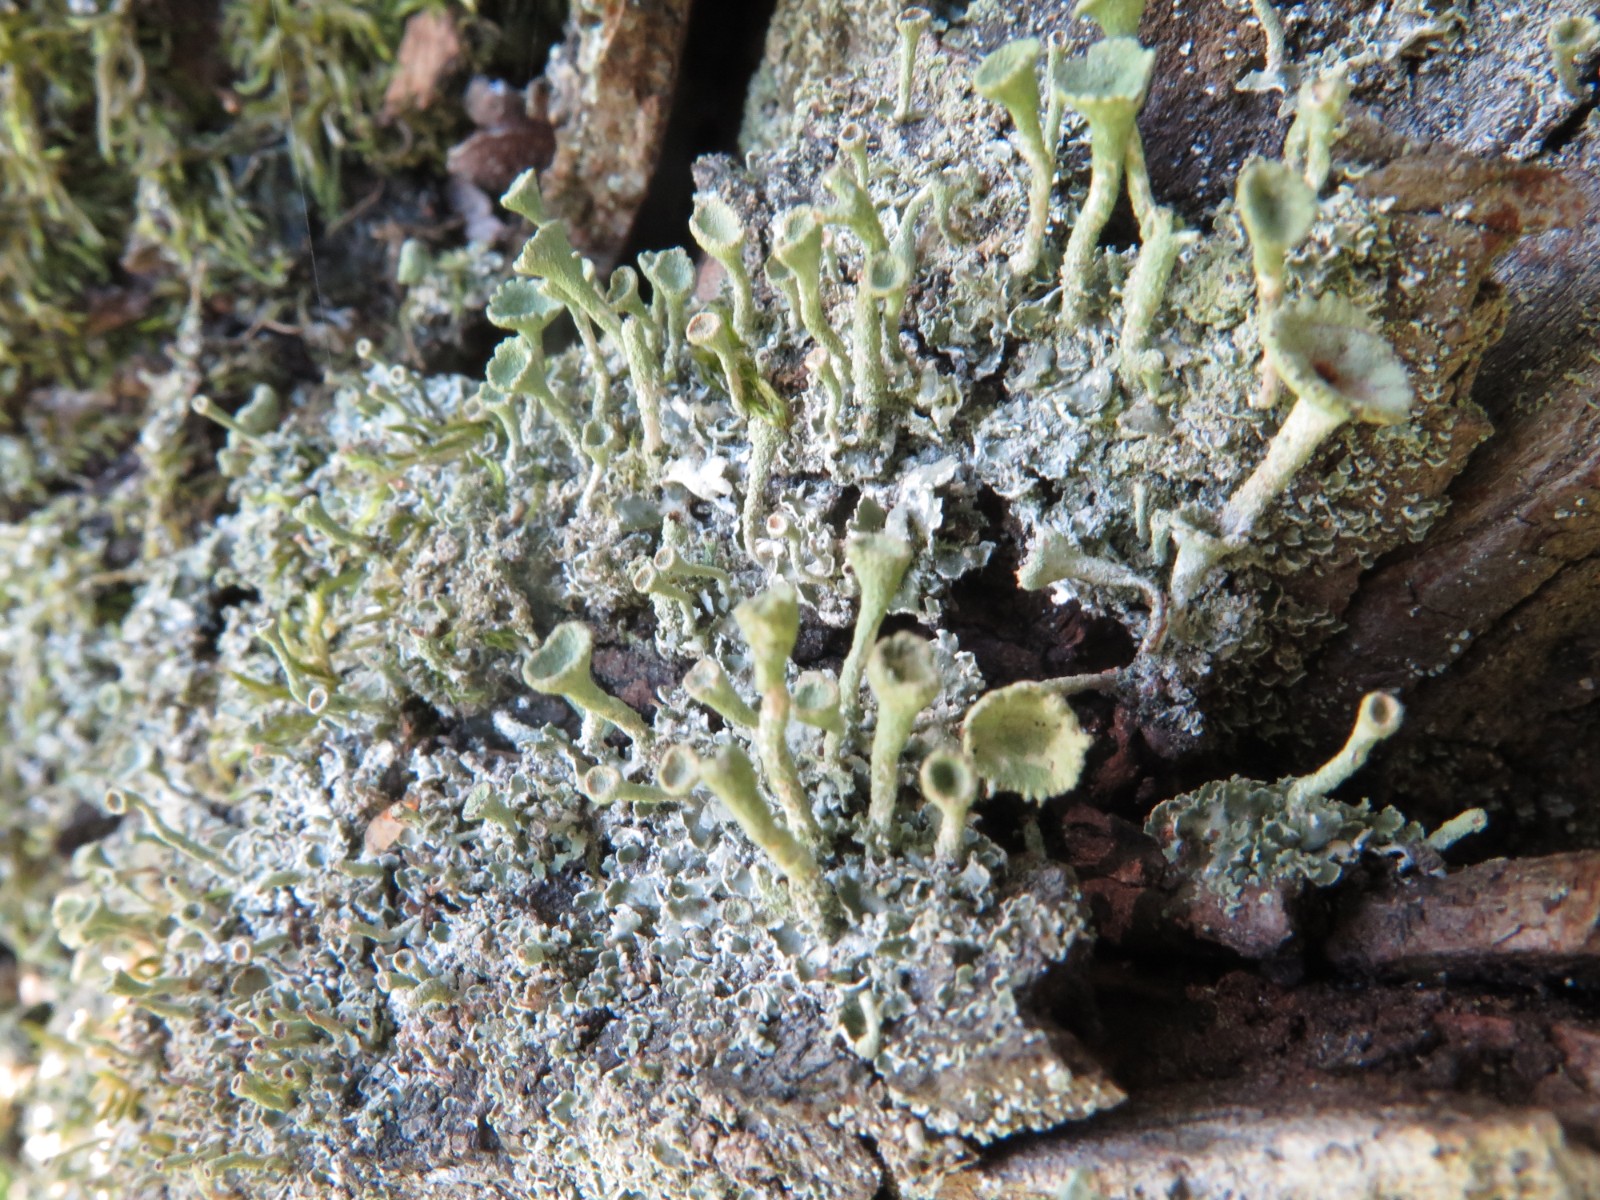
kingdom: Fungi
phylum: Ascomycota
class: Lecanoromycetes
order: Lecanorales
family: Cladoniaceae
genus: Cladonia
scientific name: Cladonia fimbriata
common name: bleggrøn bægerlav
